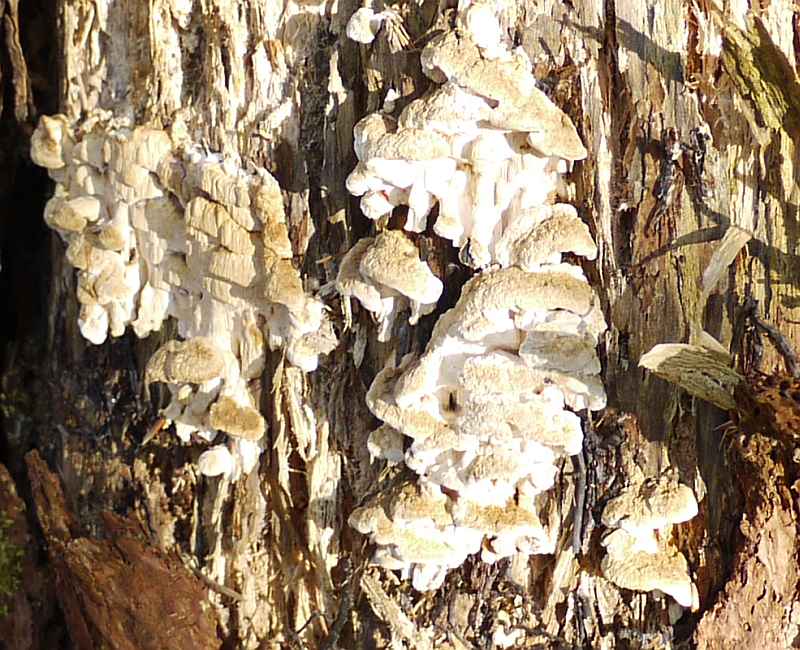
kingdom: Fungi
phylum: Basidiomycota
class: Agaricomycetes
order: Polyporales
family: Fomitopsidaceae
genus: Neoantrodia
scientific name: Neoantrodia serialis
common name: række-sejporesvamp
